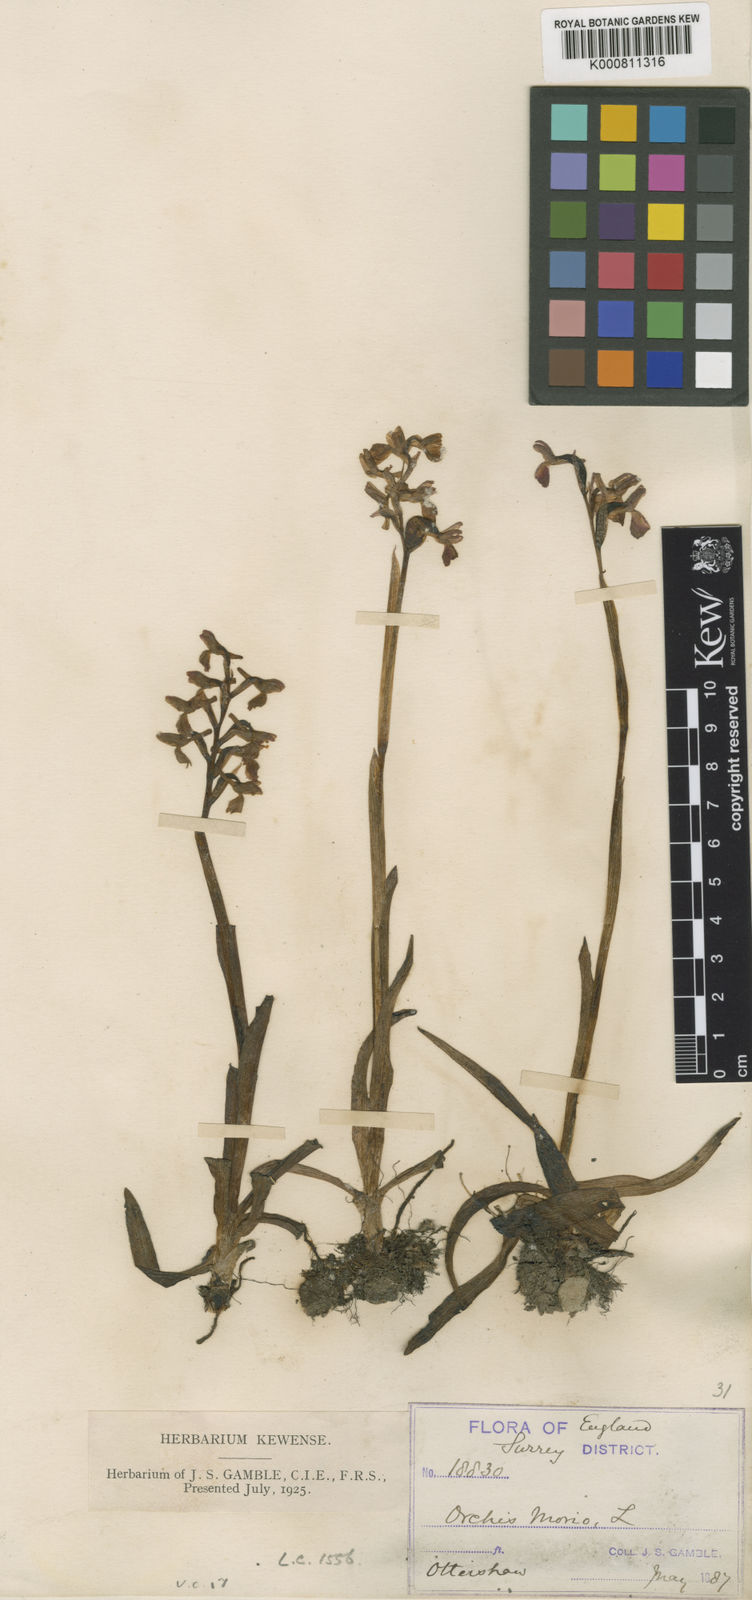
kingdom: Plantae
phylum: Tracheophyta
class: Liliopsida
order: Asparagales
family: Orchidaceae
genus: Anacamptis
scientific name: Anacamptis morio
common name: Green-winged orchid
